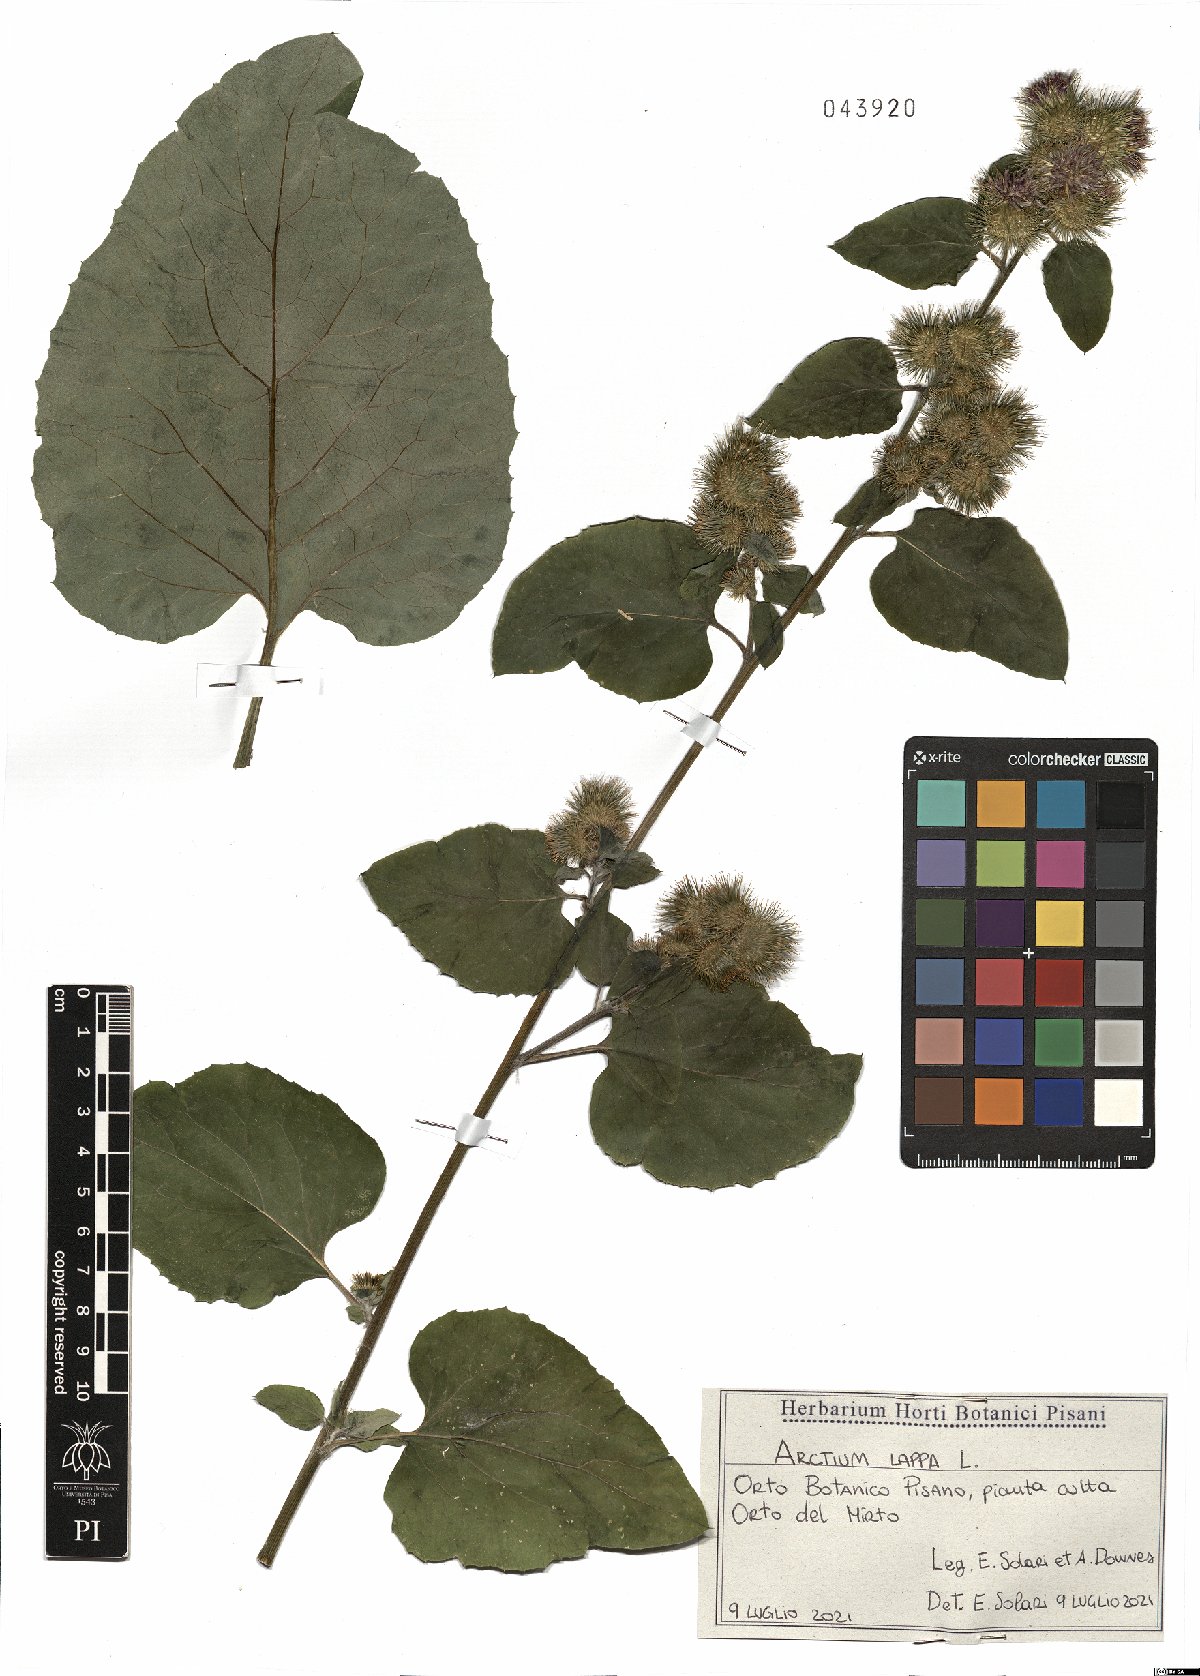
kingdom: Plantae
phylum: Tracheophyta
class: Magnoliopsida
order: Asterales
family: Asteraceae
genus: Arctium
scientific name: Arctium lappa
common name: Greater burdock
